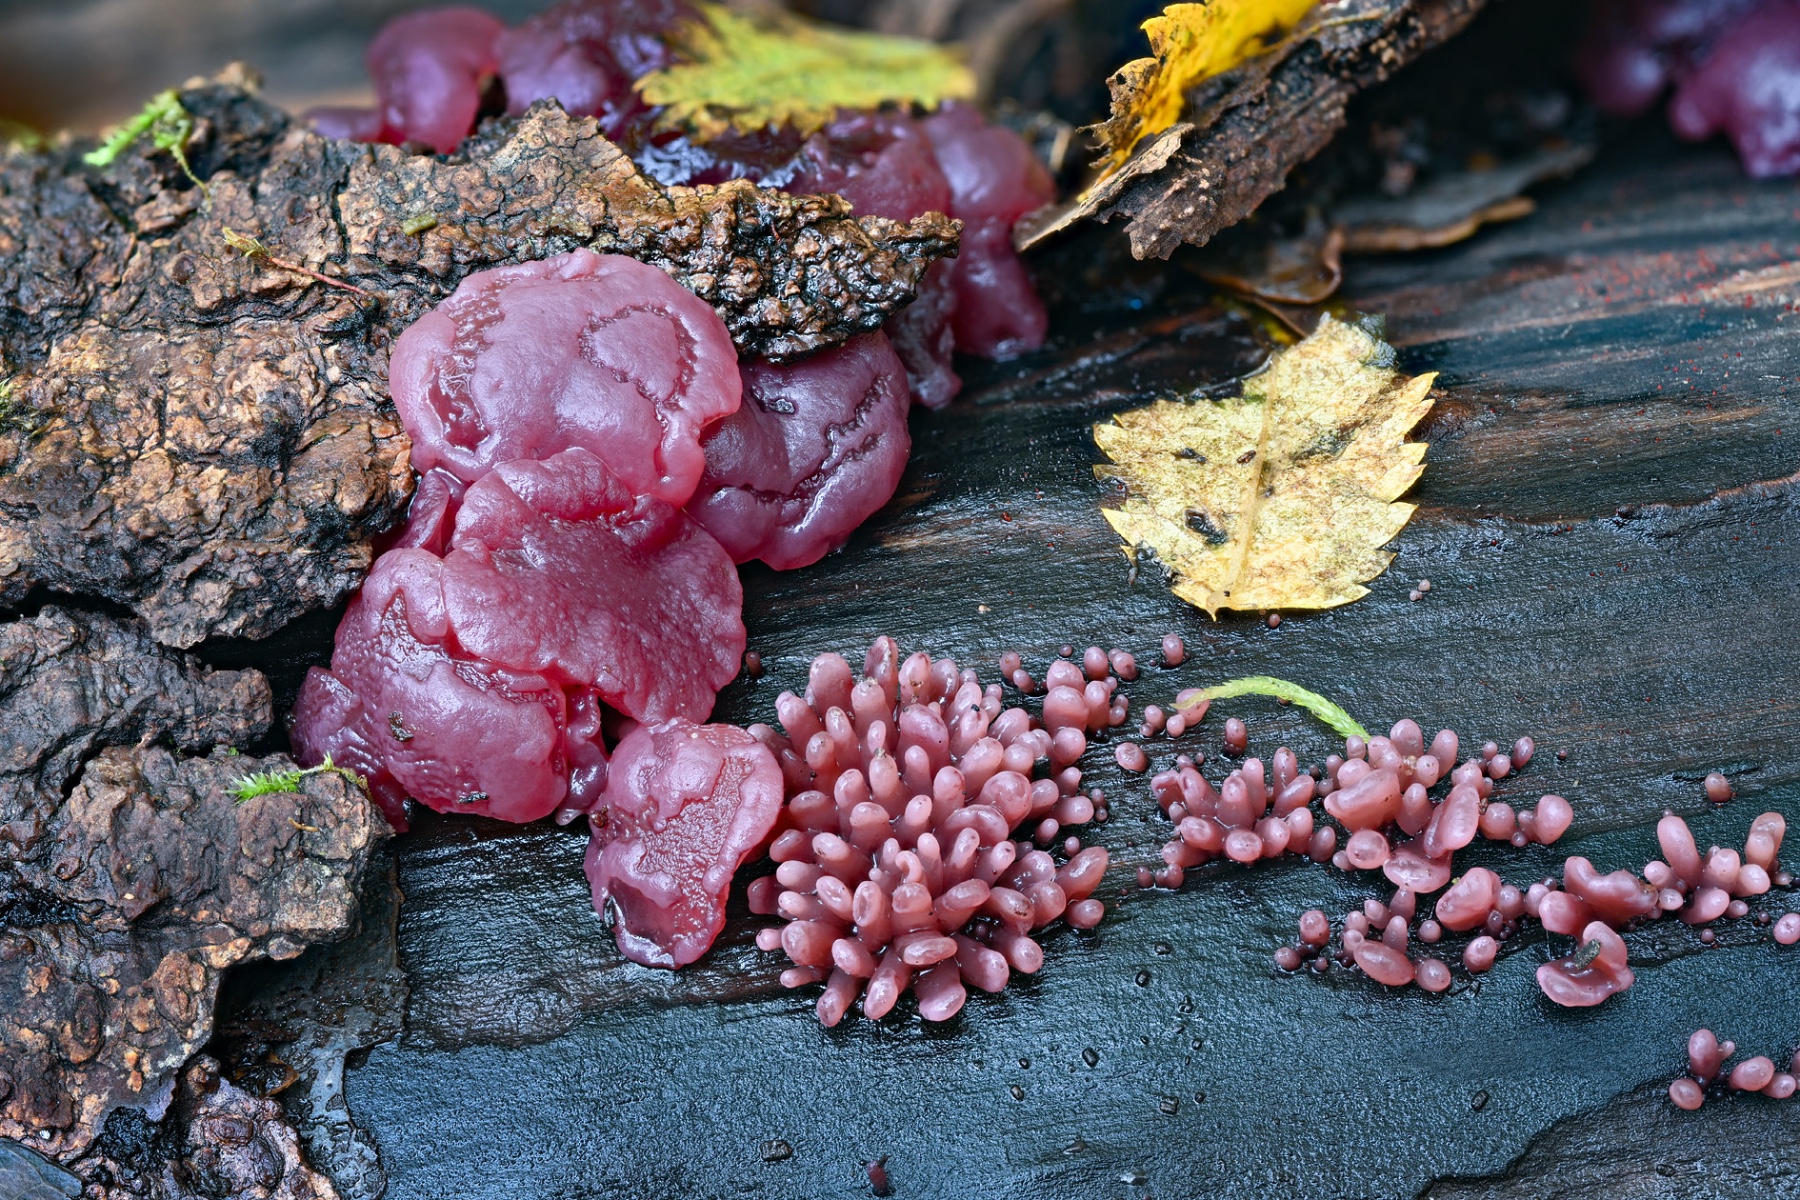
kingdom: Fungi
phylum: Ascomycota
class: Leotiomycetes
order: Helotiales
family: Gelatinodiscaceae
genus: Ascocoryne
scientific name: Ascocoryne sarcoides
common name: rødlilla sejskive
